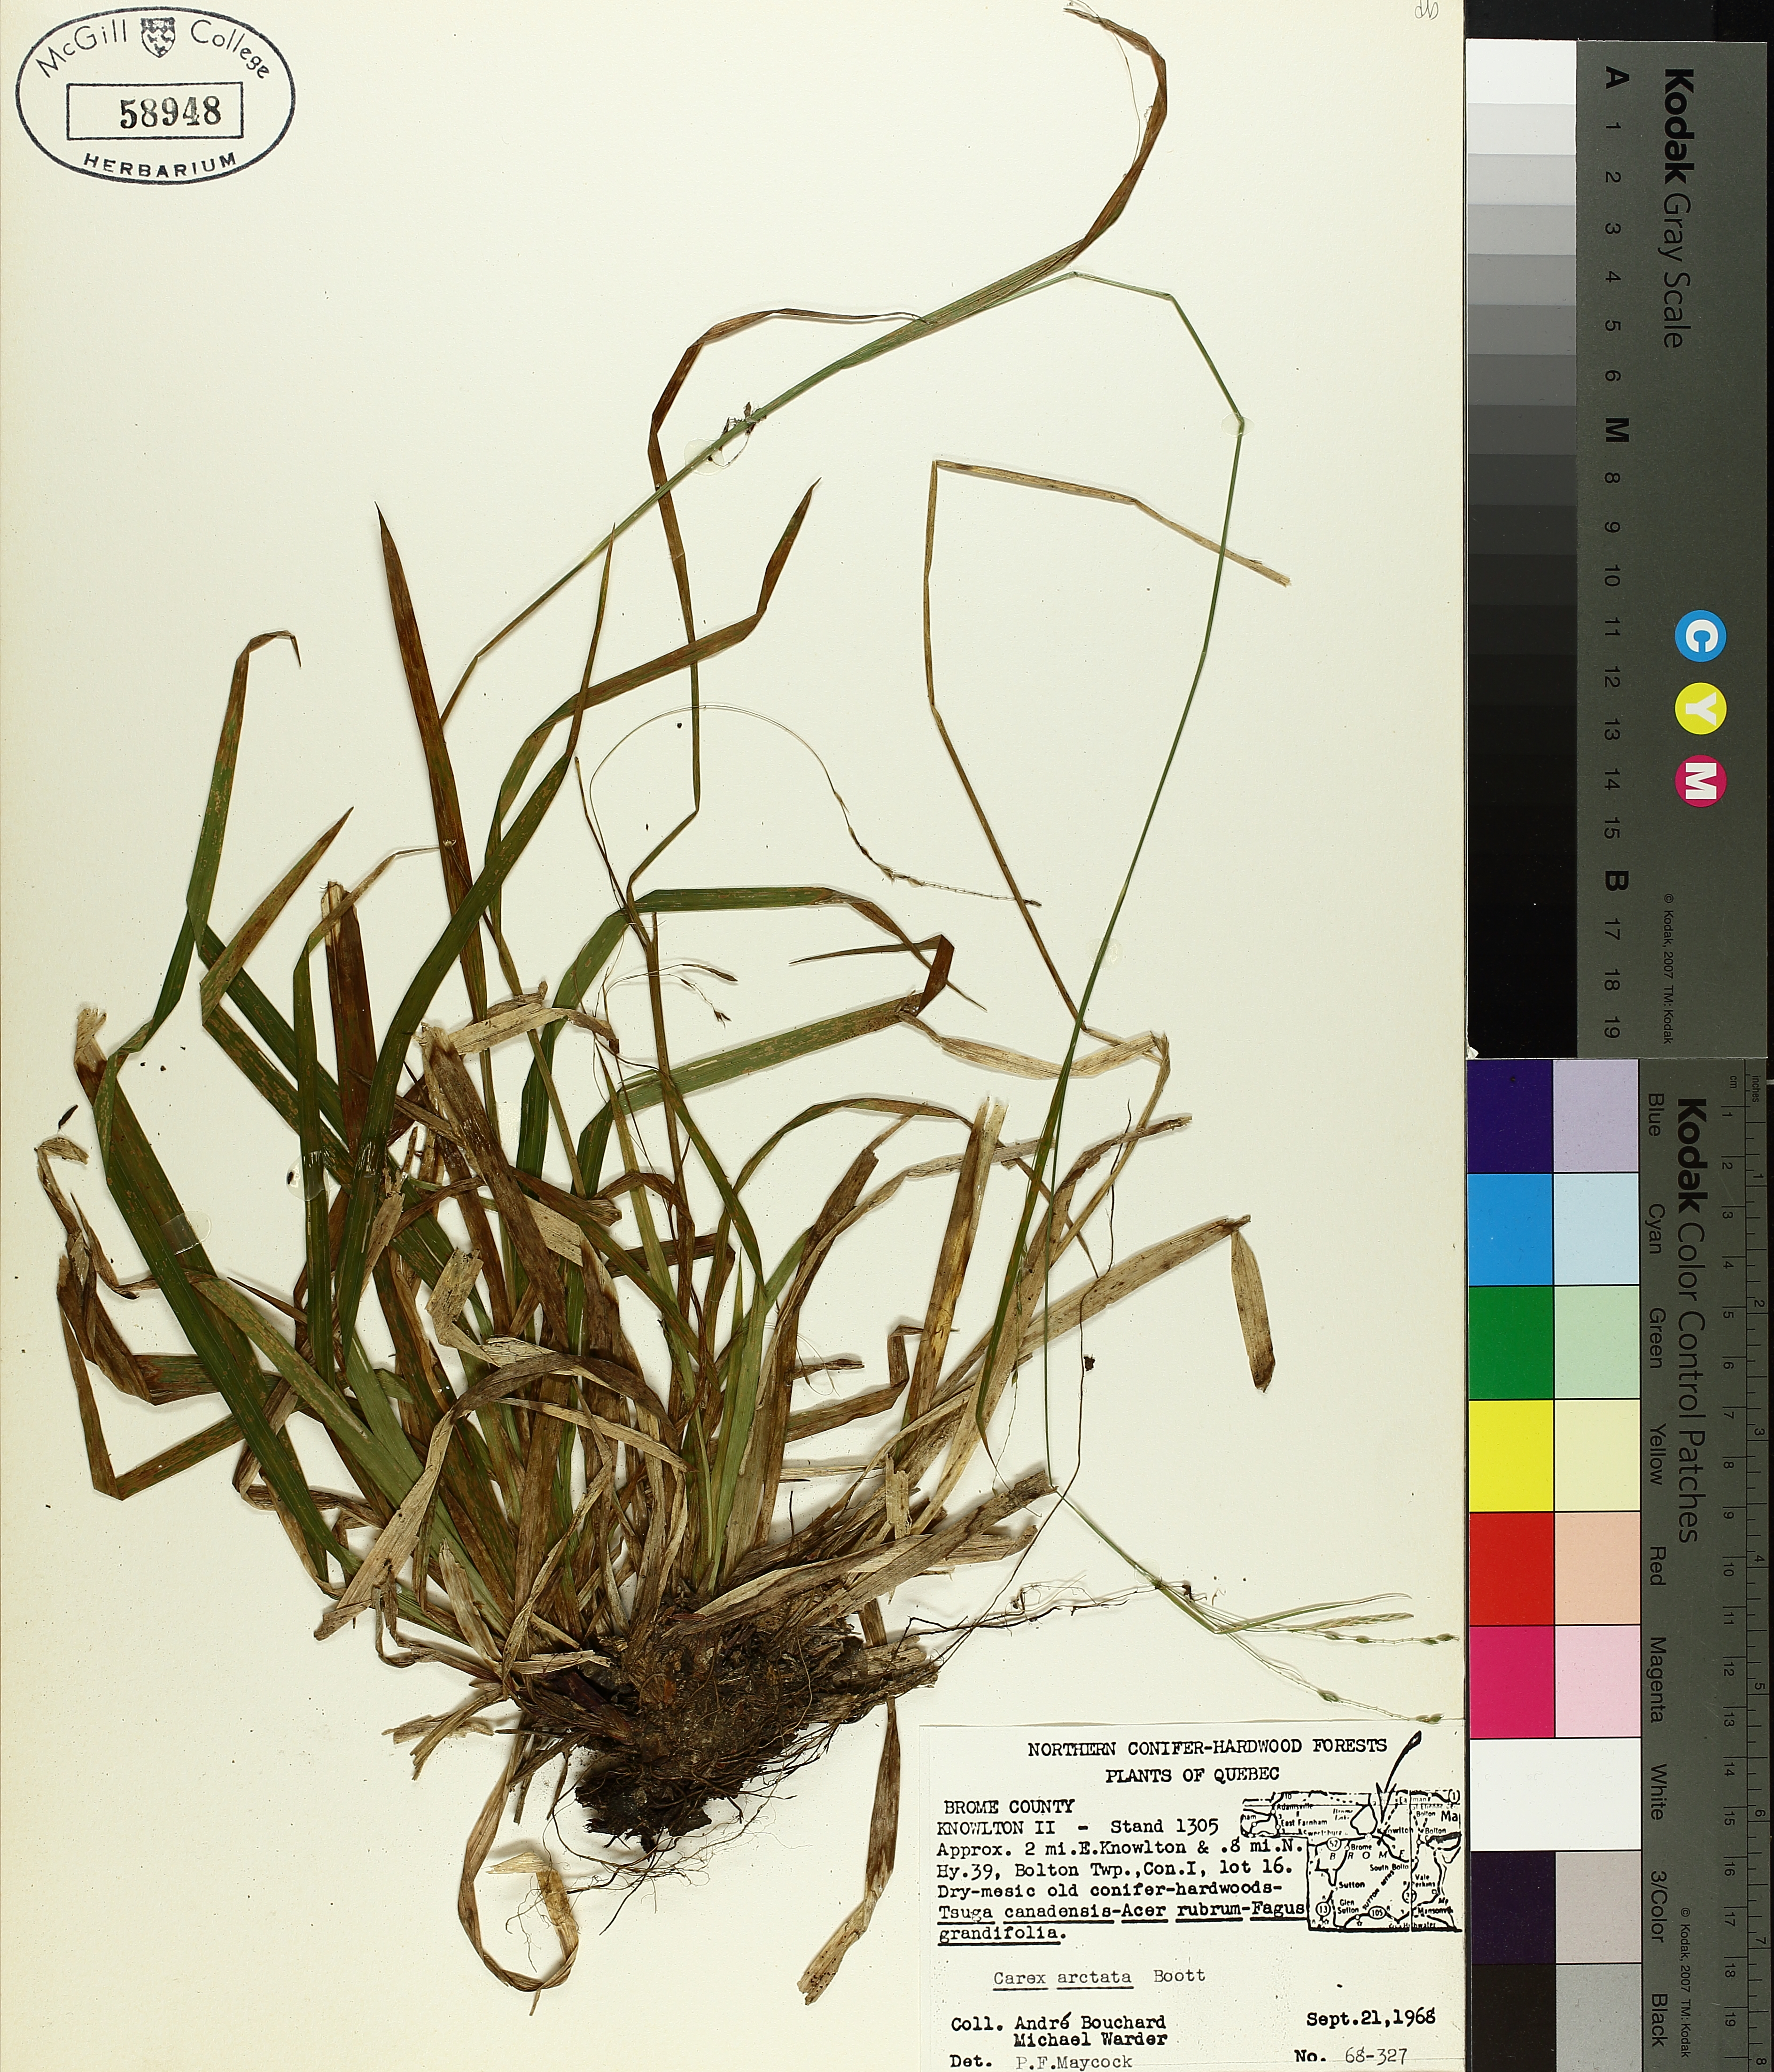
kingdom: Plantae
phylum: Tracheophyta
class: Liliopsida
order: Poales
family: Cyperaceae
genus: Carex
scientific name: Carex arctata
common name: Black sedge
